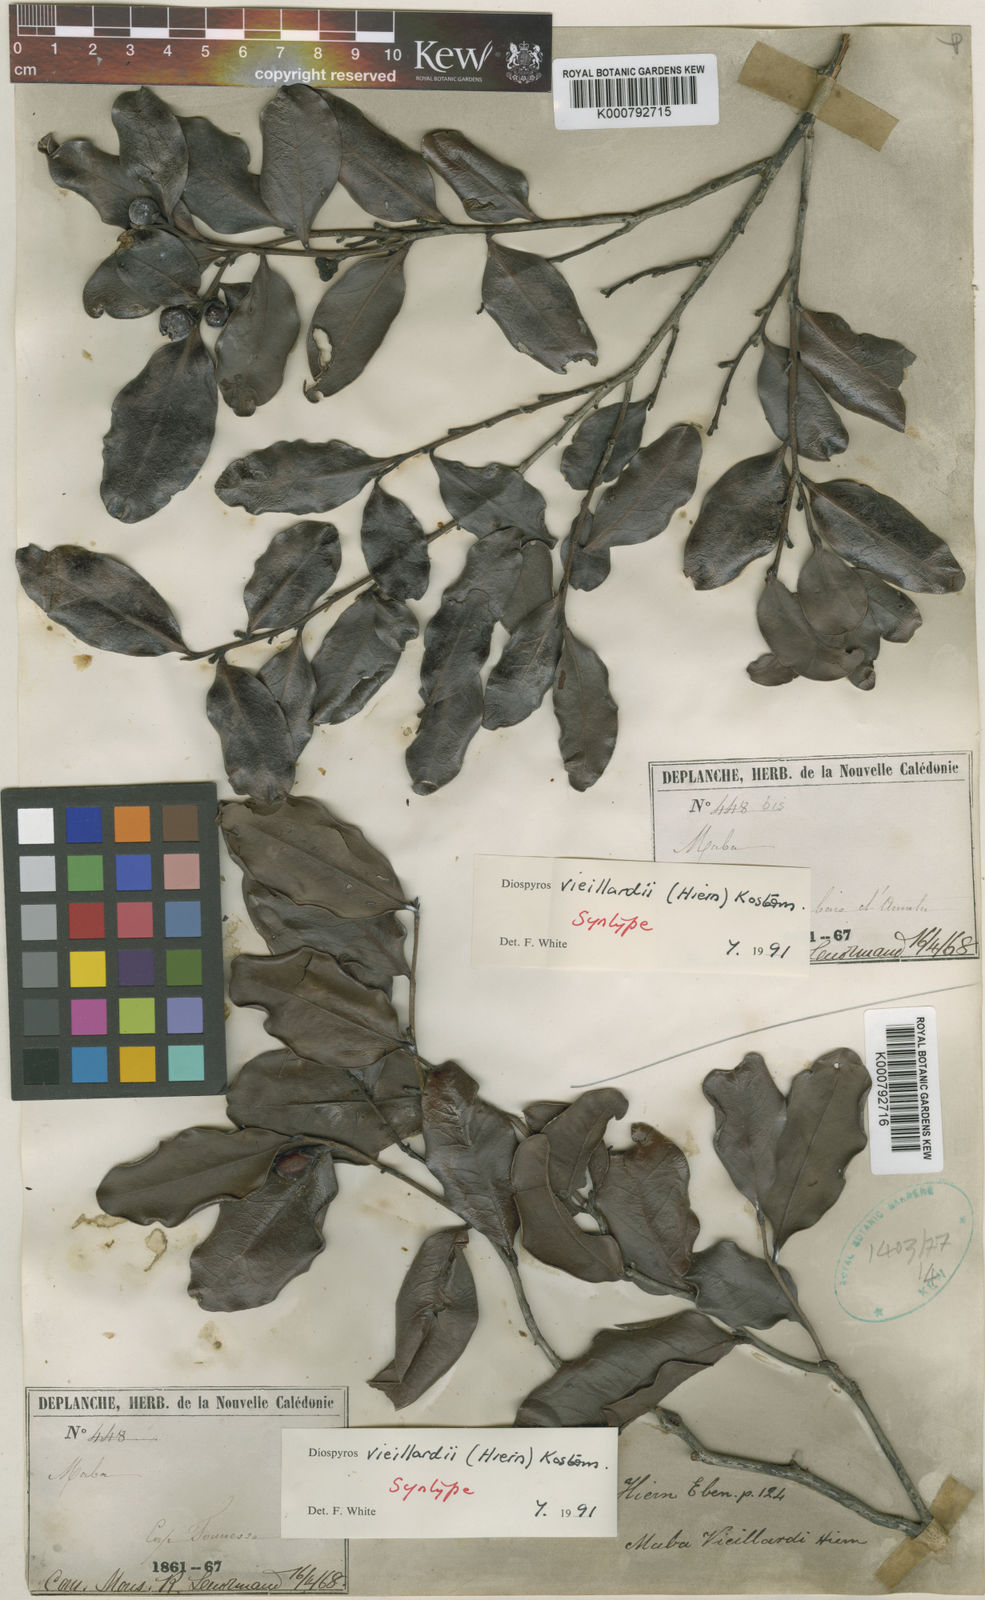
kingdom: Plantae
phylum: Tracheophyta
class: Magnoliopsida
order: Ericales
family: Ebenaceae
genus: Diospyros
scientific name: Diospyros vieillardii
